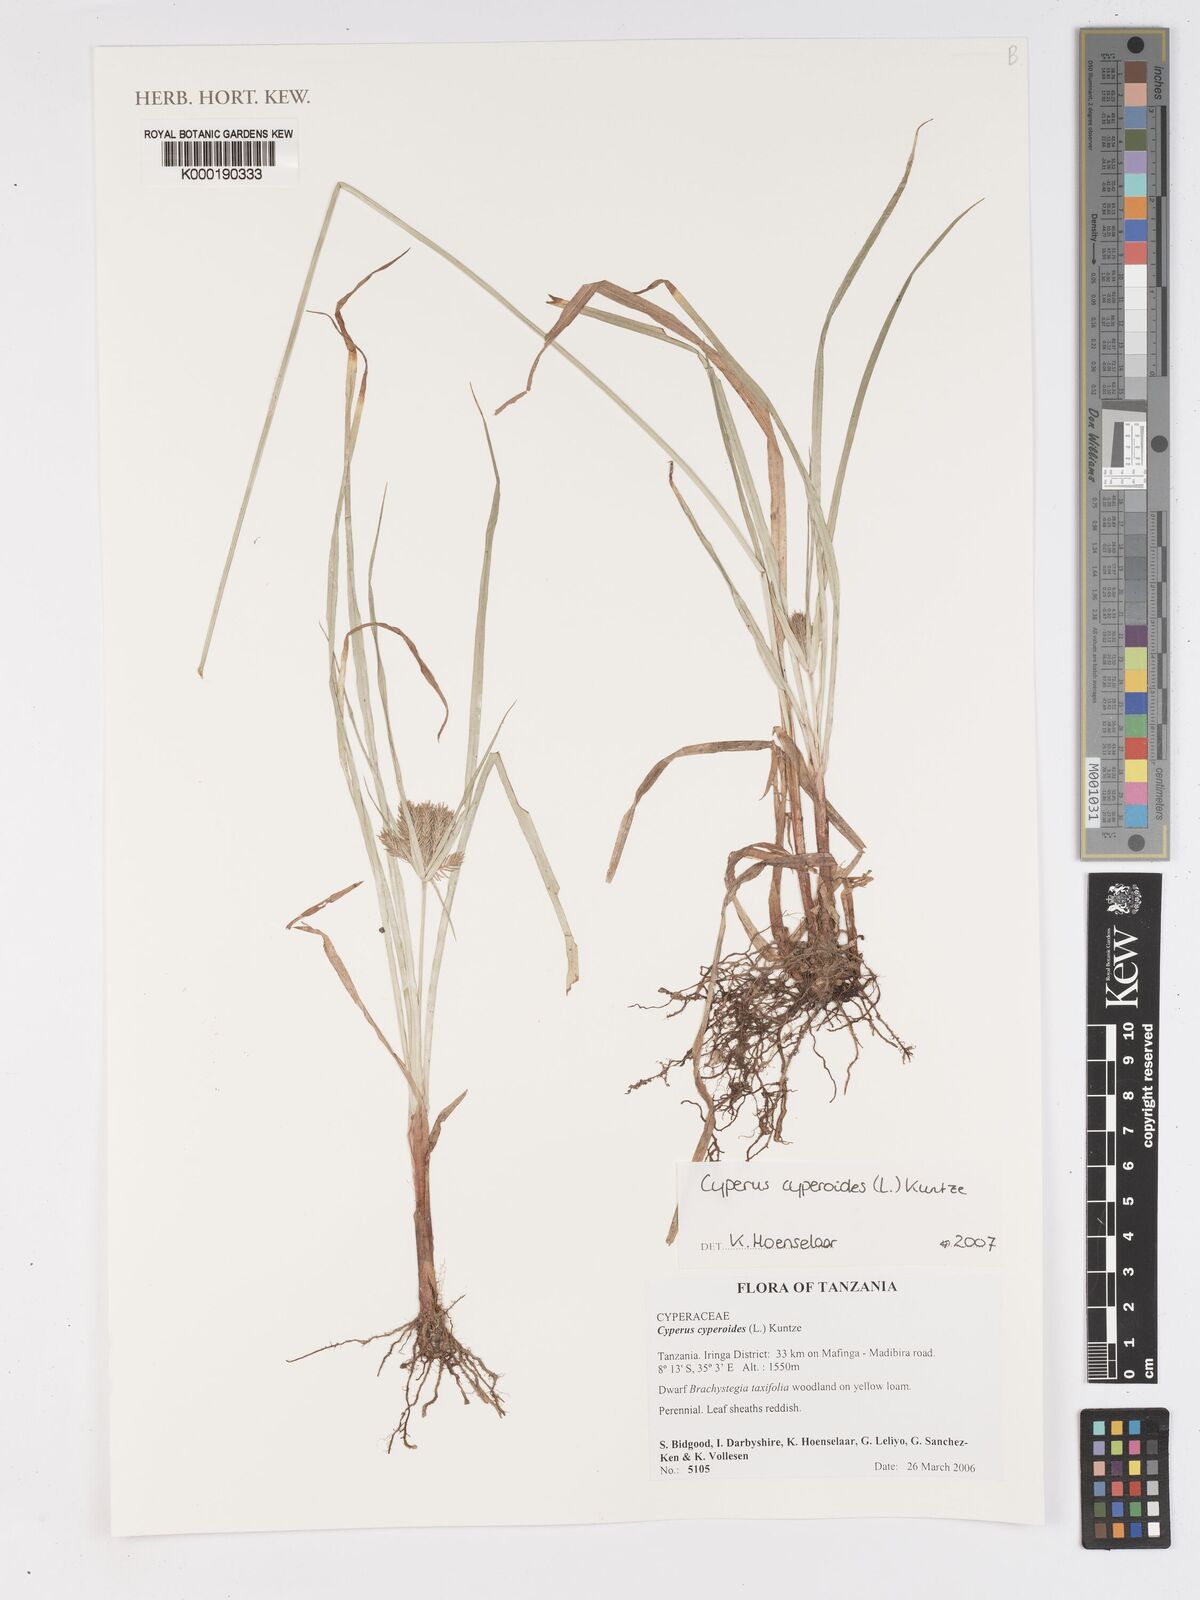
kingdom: Plantae
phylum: Tracheophyta
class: Liliopsida
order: Poales
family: Cyperaceae
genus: Cyperus
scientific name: Cyperus cyperoides
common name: Pacific island flat sedge
